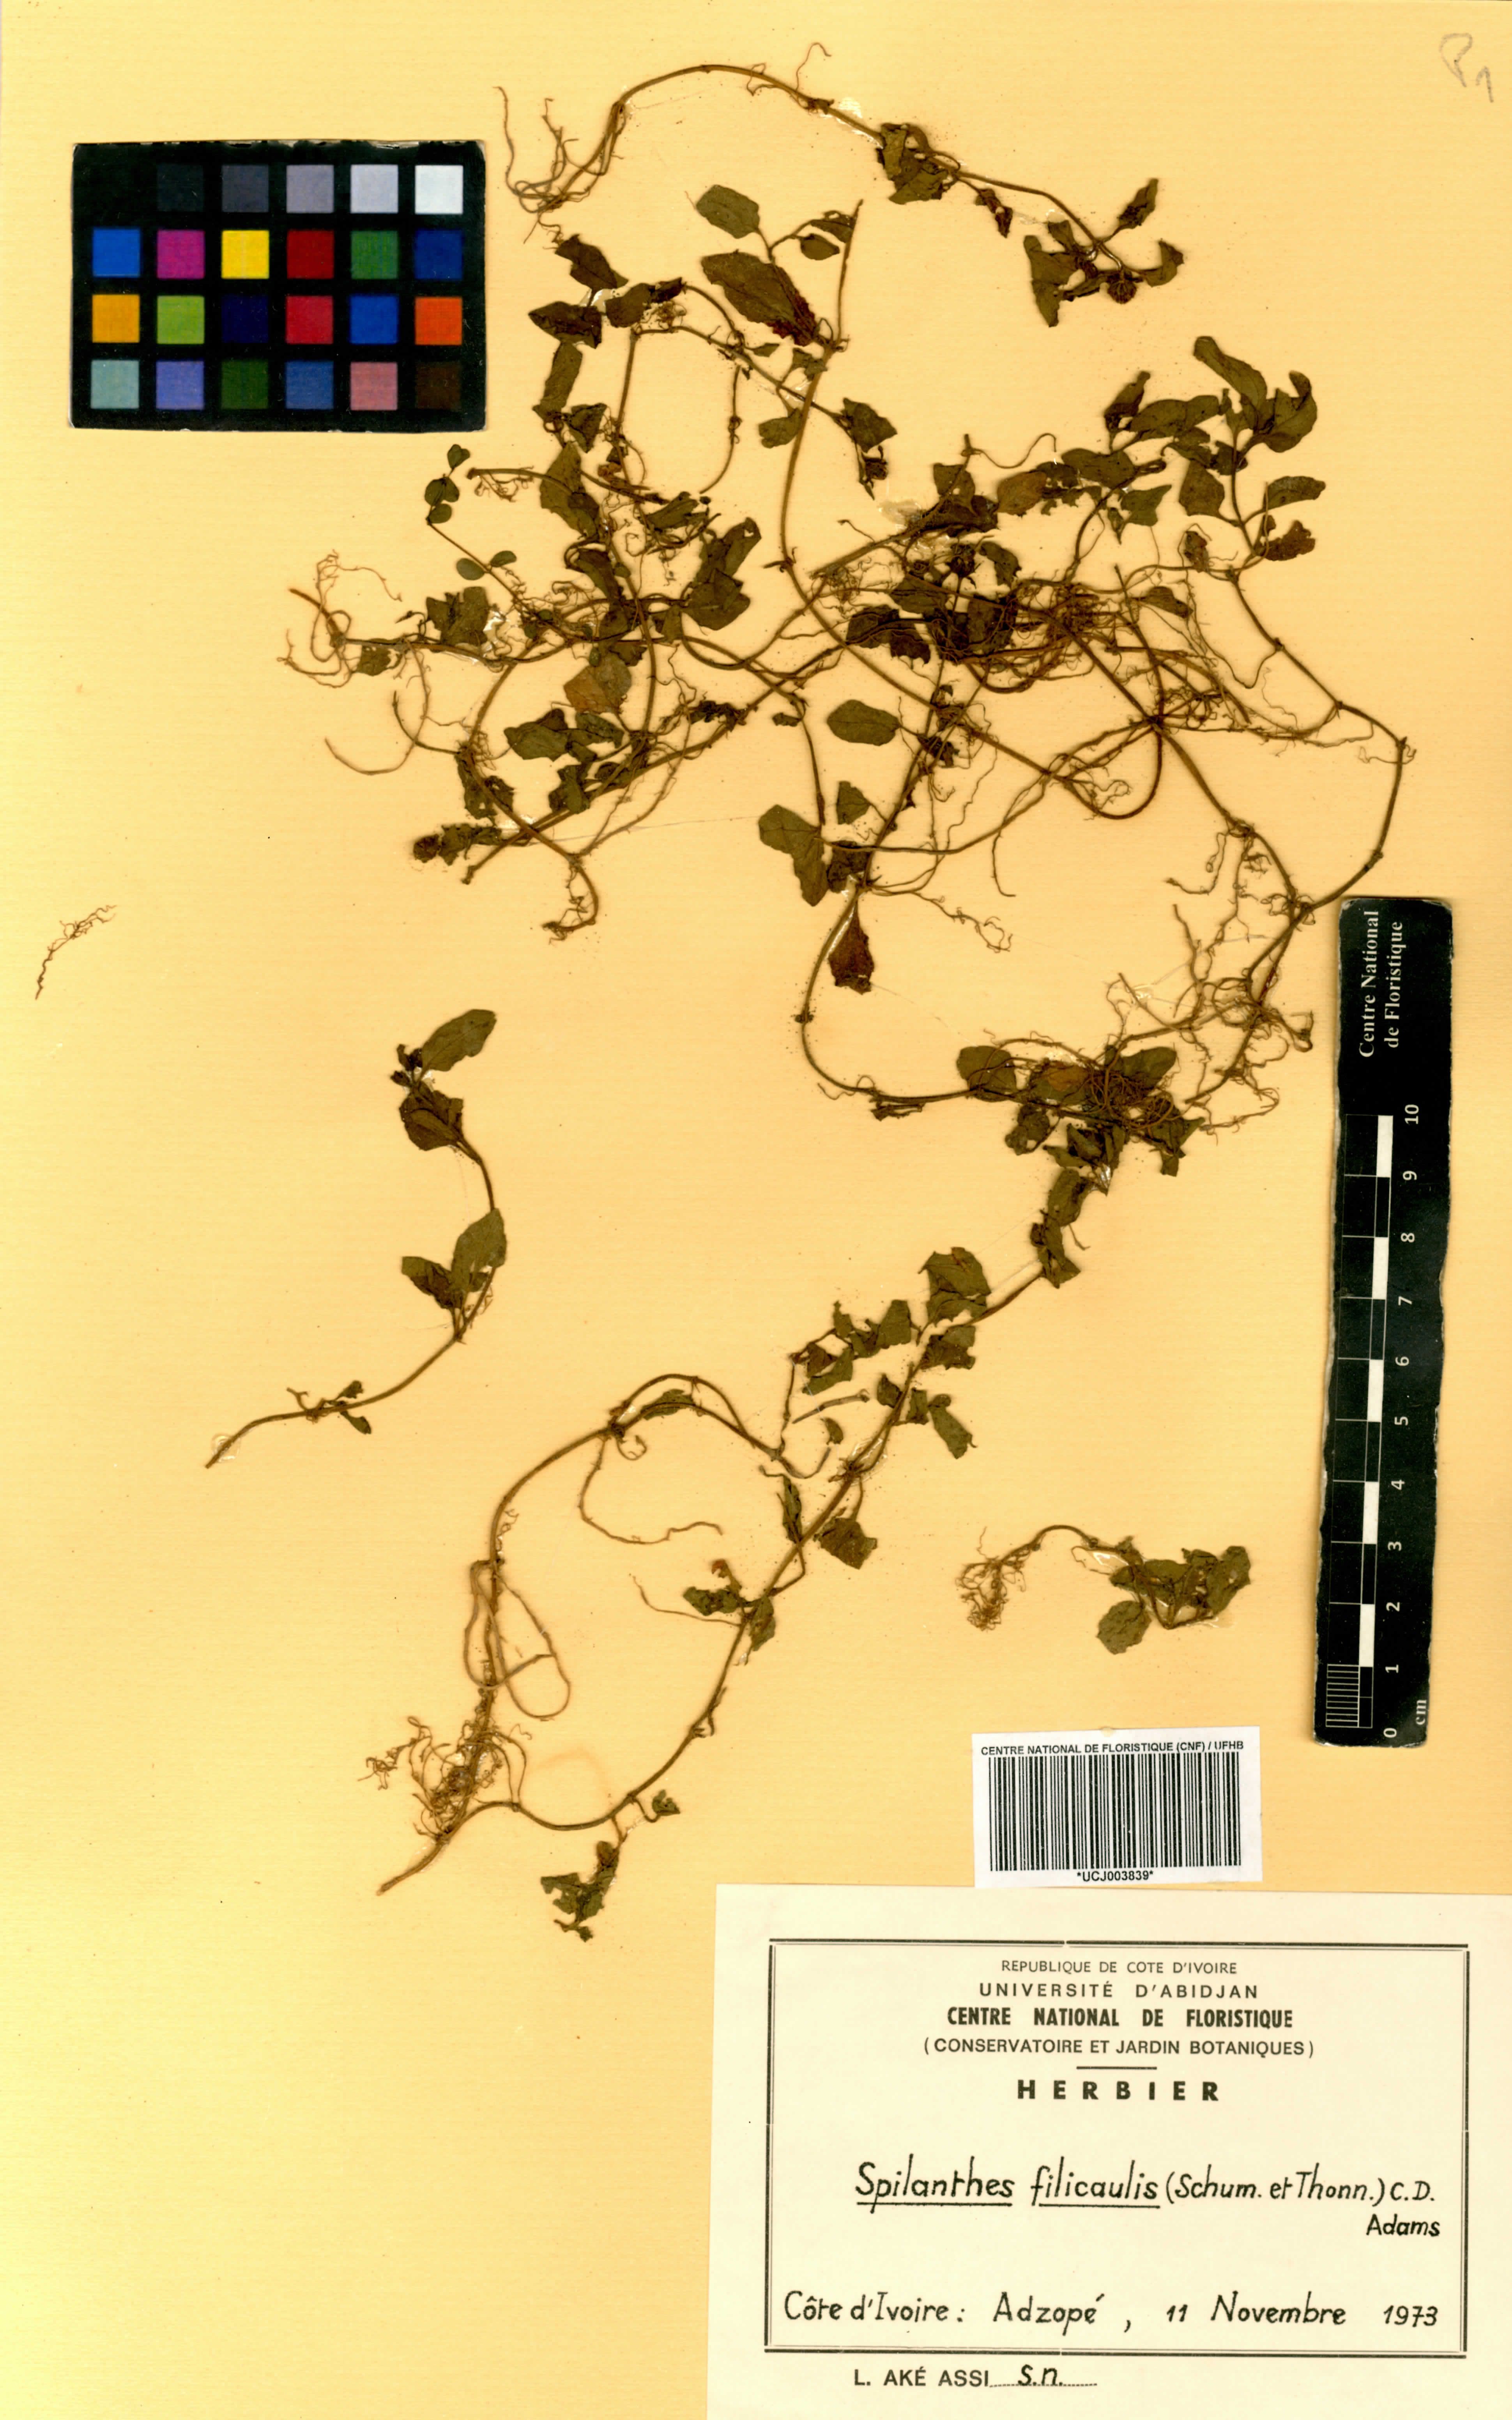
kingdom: Plantae
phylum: Tracheophyta
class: Magnoliopsida
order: Asterales
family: Asteraceae
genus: Acmella
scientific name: Acmella caulirhiza
